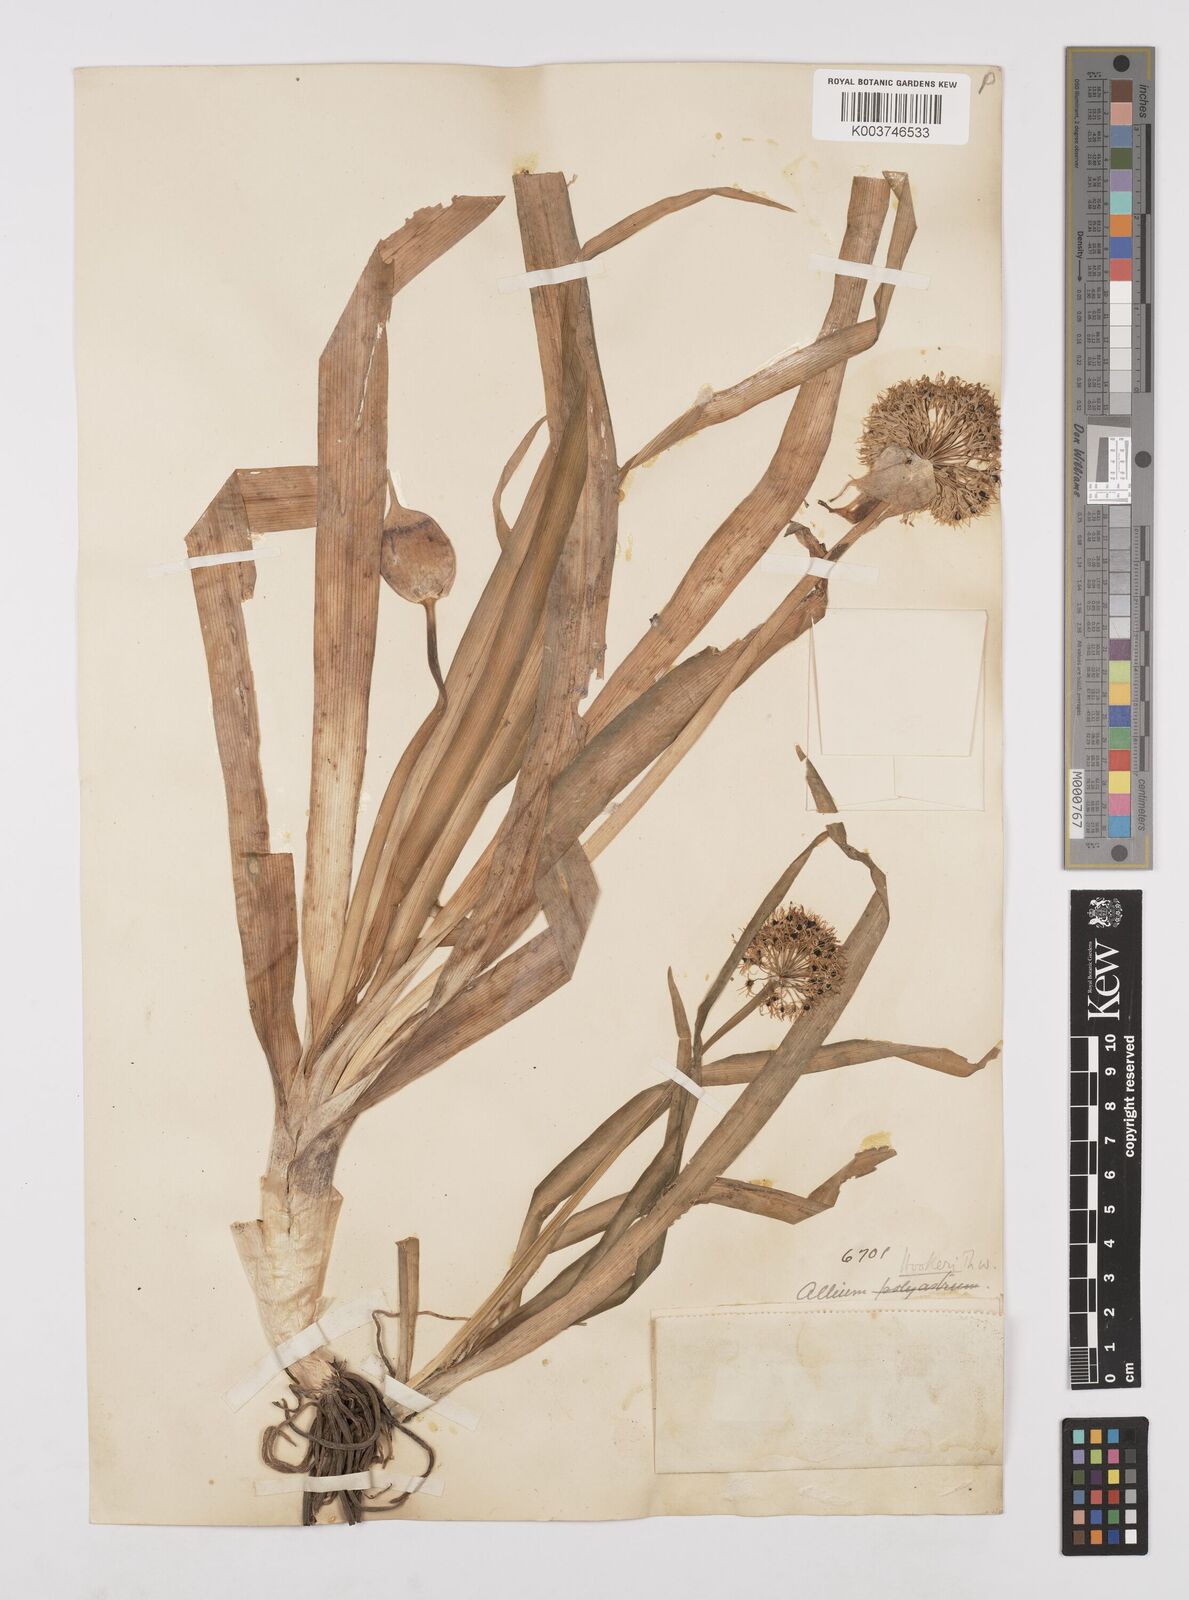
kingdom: Plantae
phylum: Tracheophyta
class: Liliopsida
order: Asparagales
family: Amaryllidaceae
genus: Allium
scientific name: Allium hookeri
